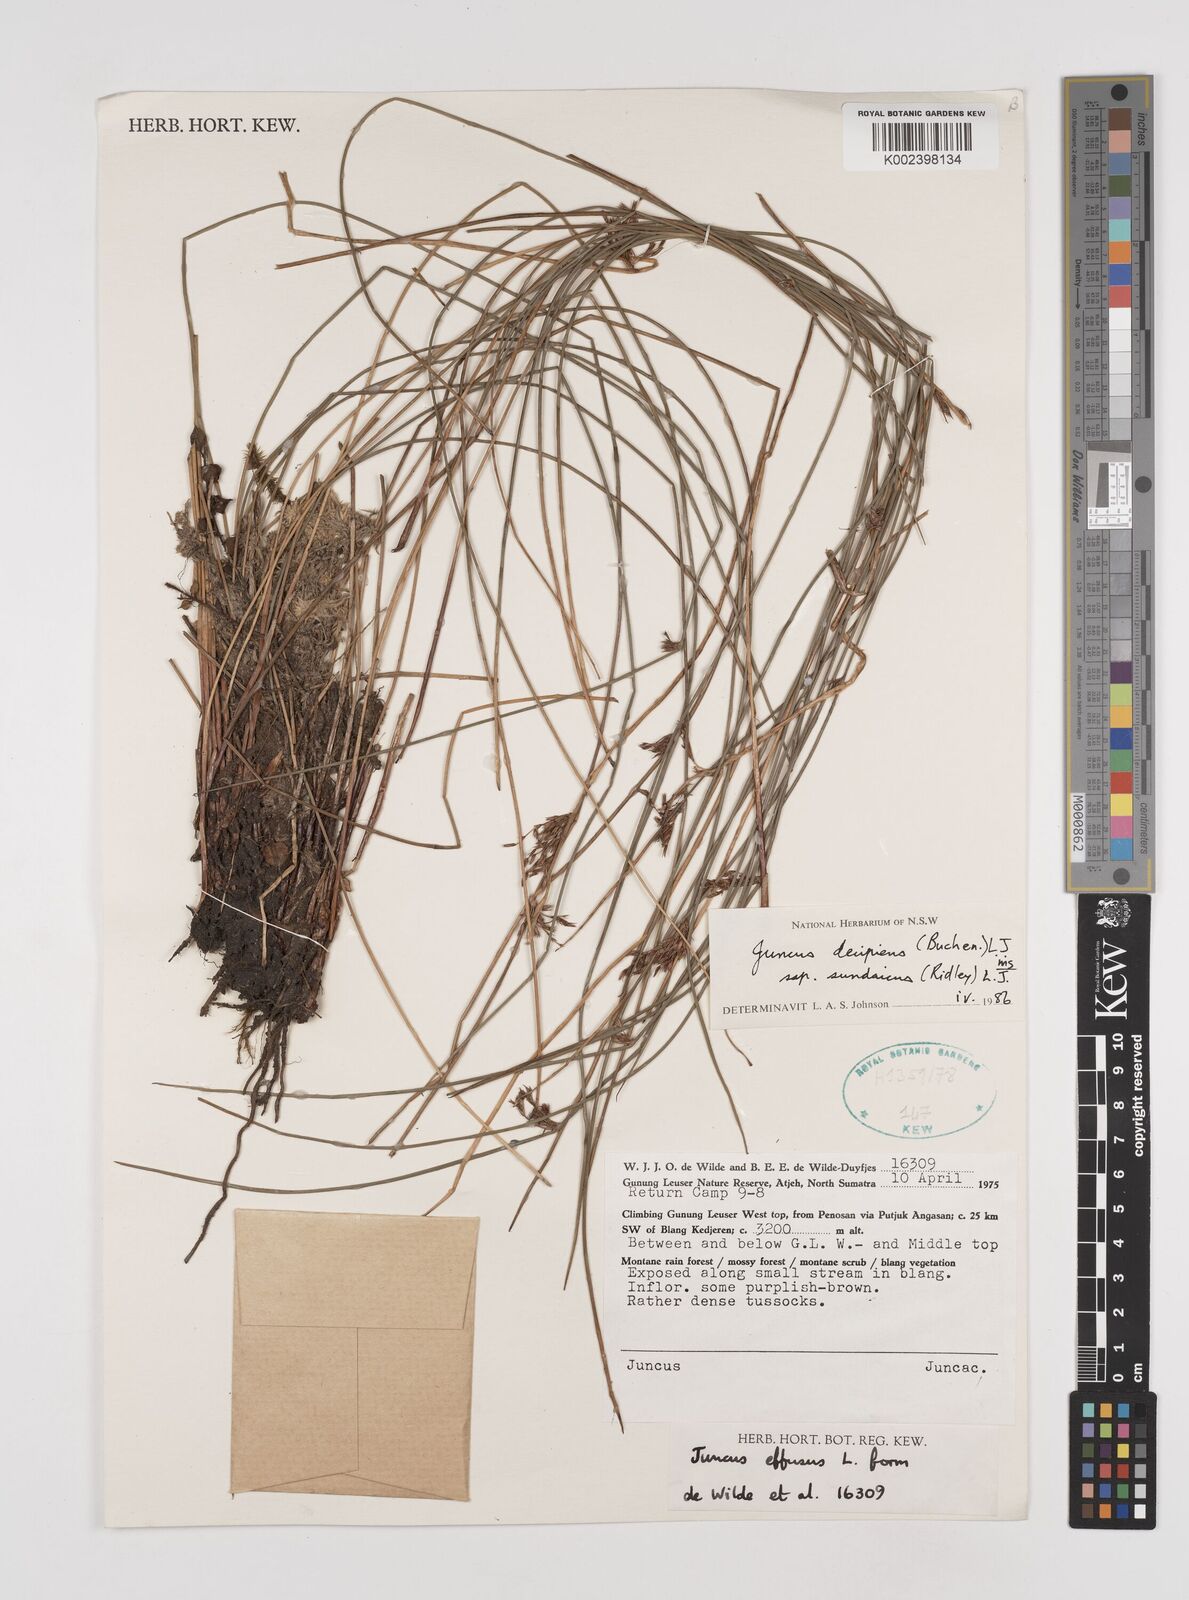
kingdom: Plantae
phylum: Tracheophyta
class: Liliopsida
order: Poales
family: Juncaceae
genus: Juncus
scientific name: Juncus decipiens
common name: Lamp rush
